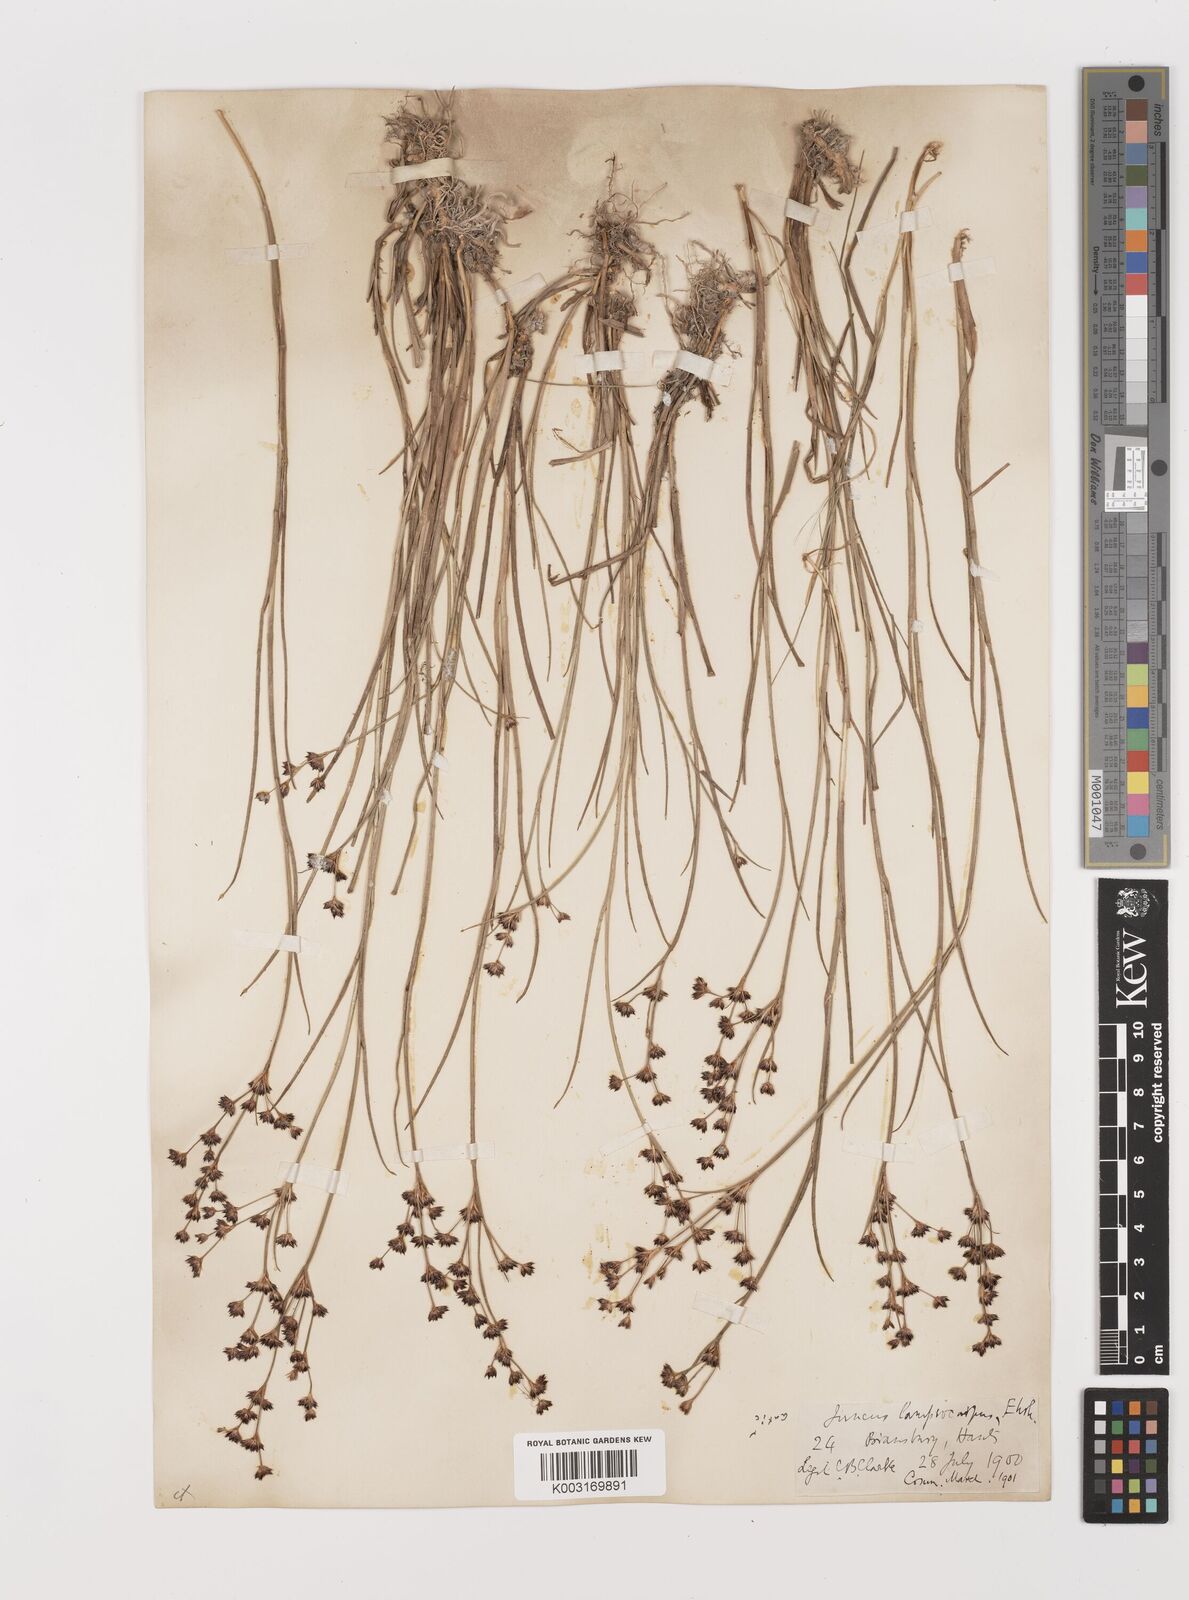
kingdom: Plantae
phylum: Tracheophyta
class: Liliopsida
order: Poales
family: Juncaceae
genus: Juncus
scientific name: Juncus articulatus
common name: Jointed rush
